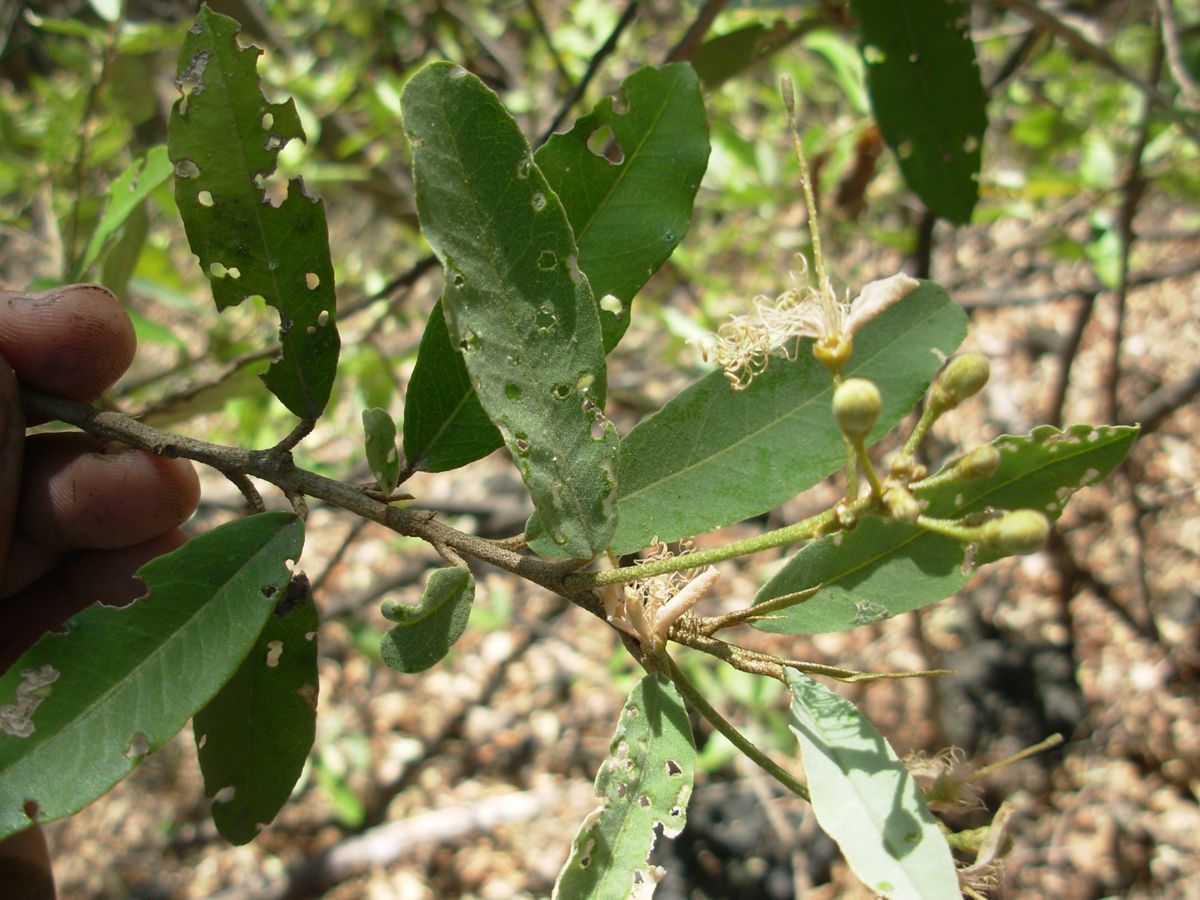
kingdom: Plantae
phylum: Tracheophyta
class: Magnoliopsida
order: Brassicales
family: Capparaceae
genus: Quadrella
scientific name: Quadrella indica
